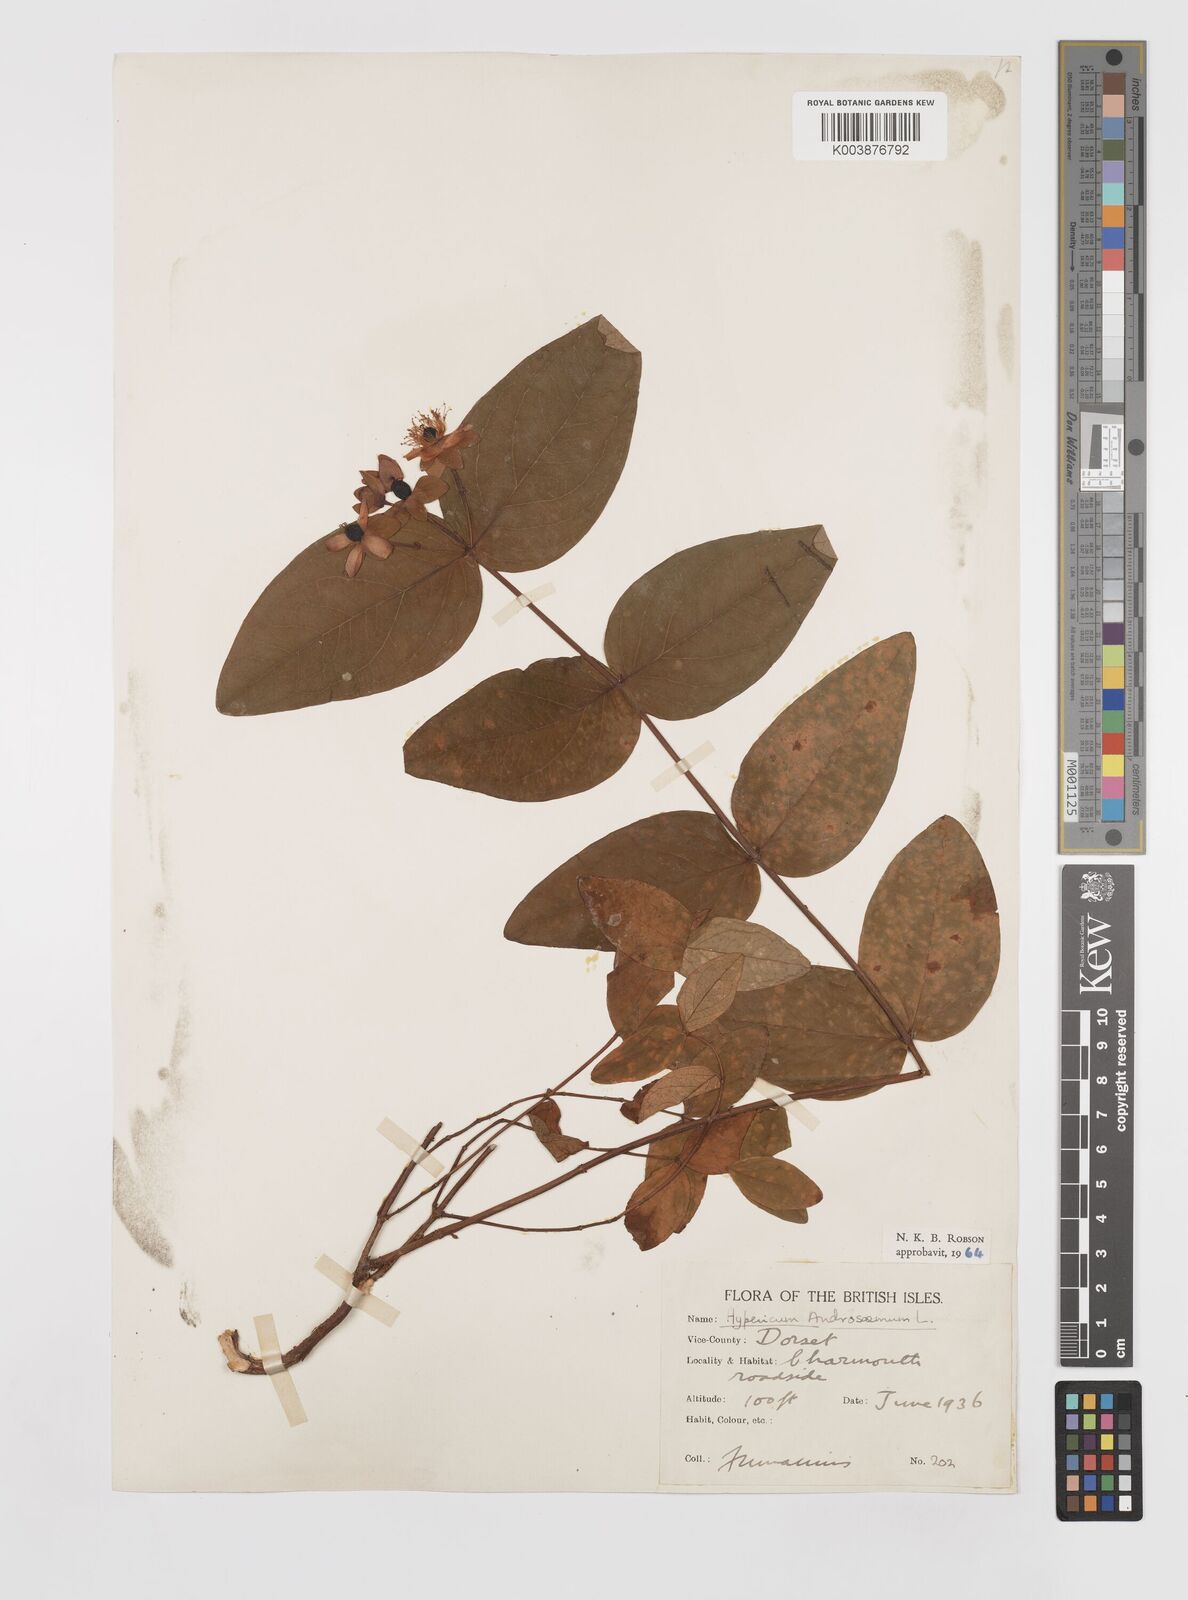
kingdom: Plantae
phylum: Tracheophyta
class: Magnoliopsida
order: Malpighiales
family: Hypericaceae
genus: Hypericum
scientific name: Hypericum androsaemum
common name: Sweet-amber
